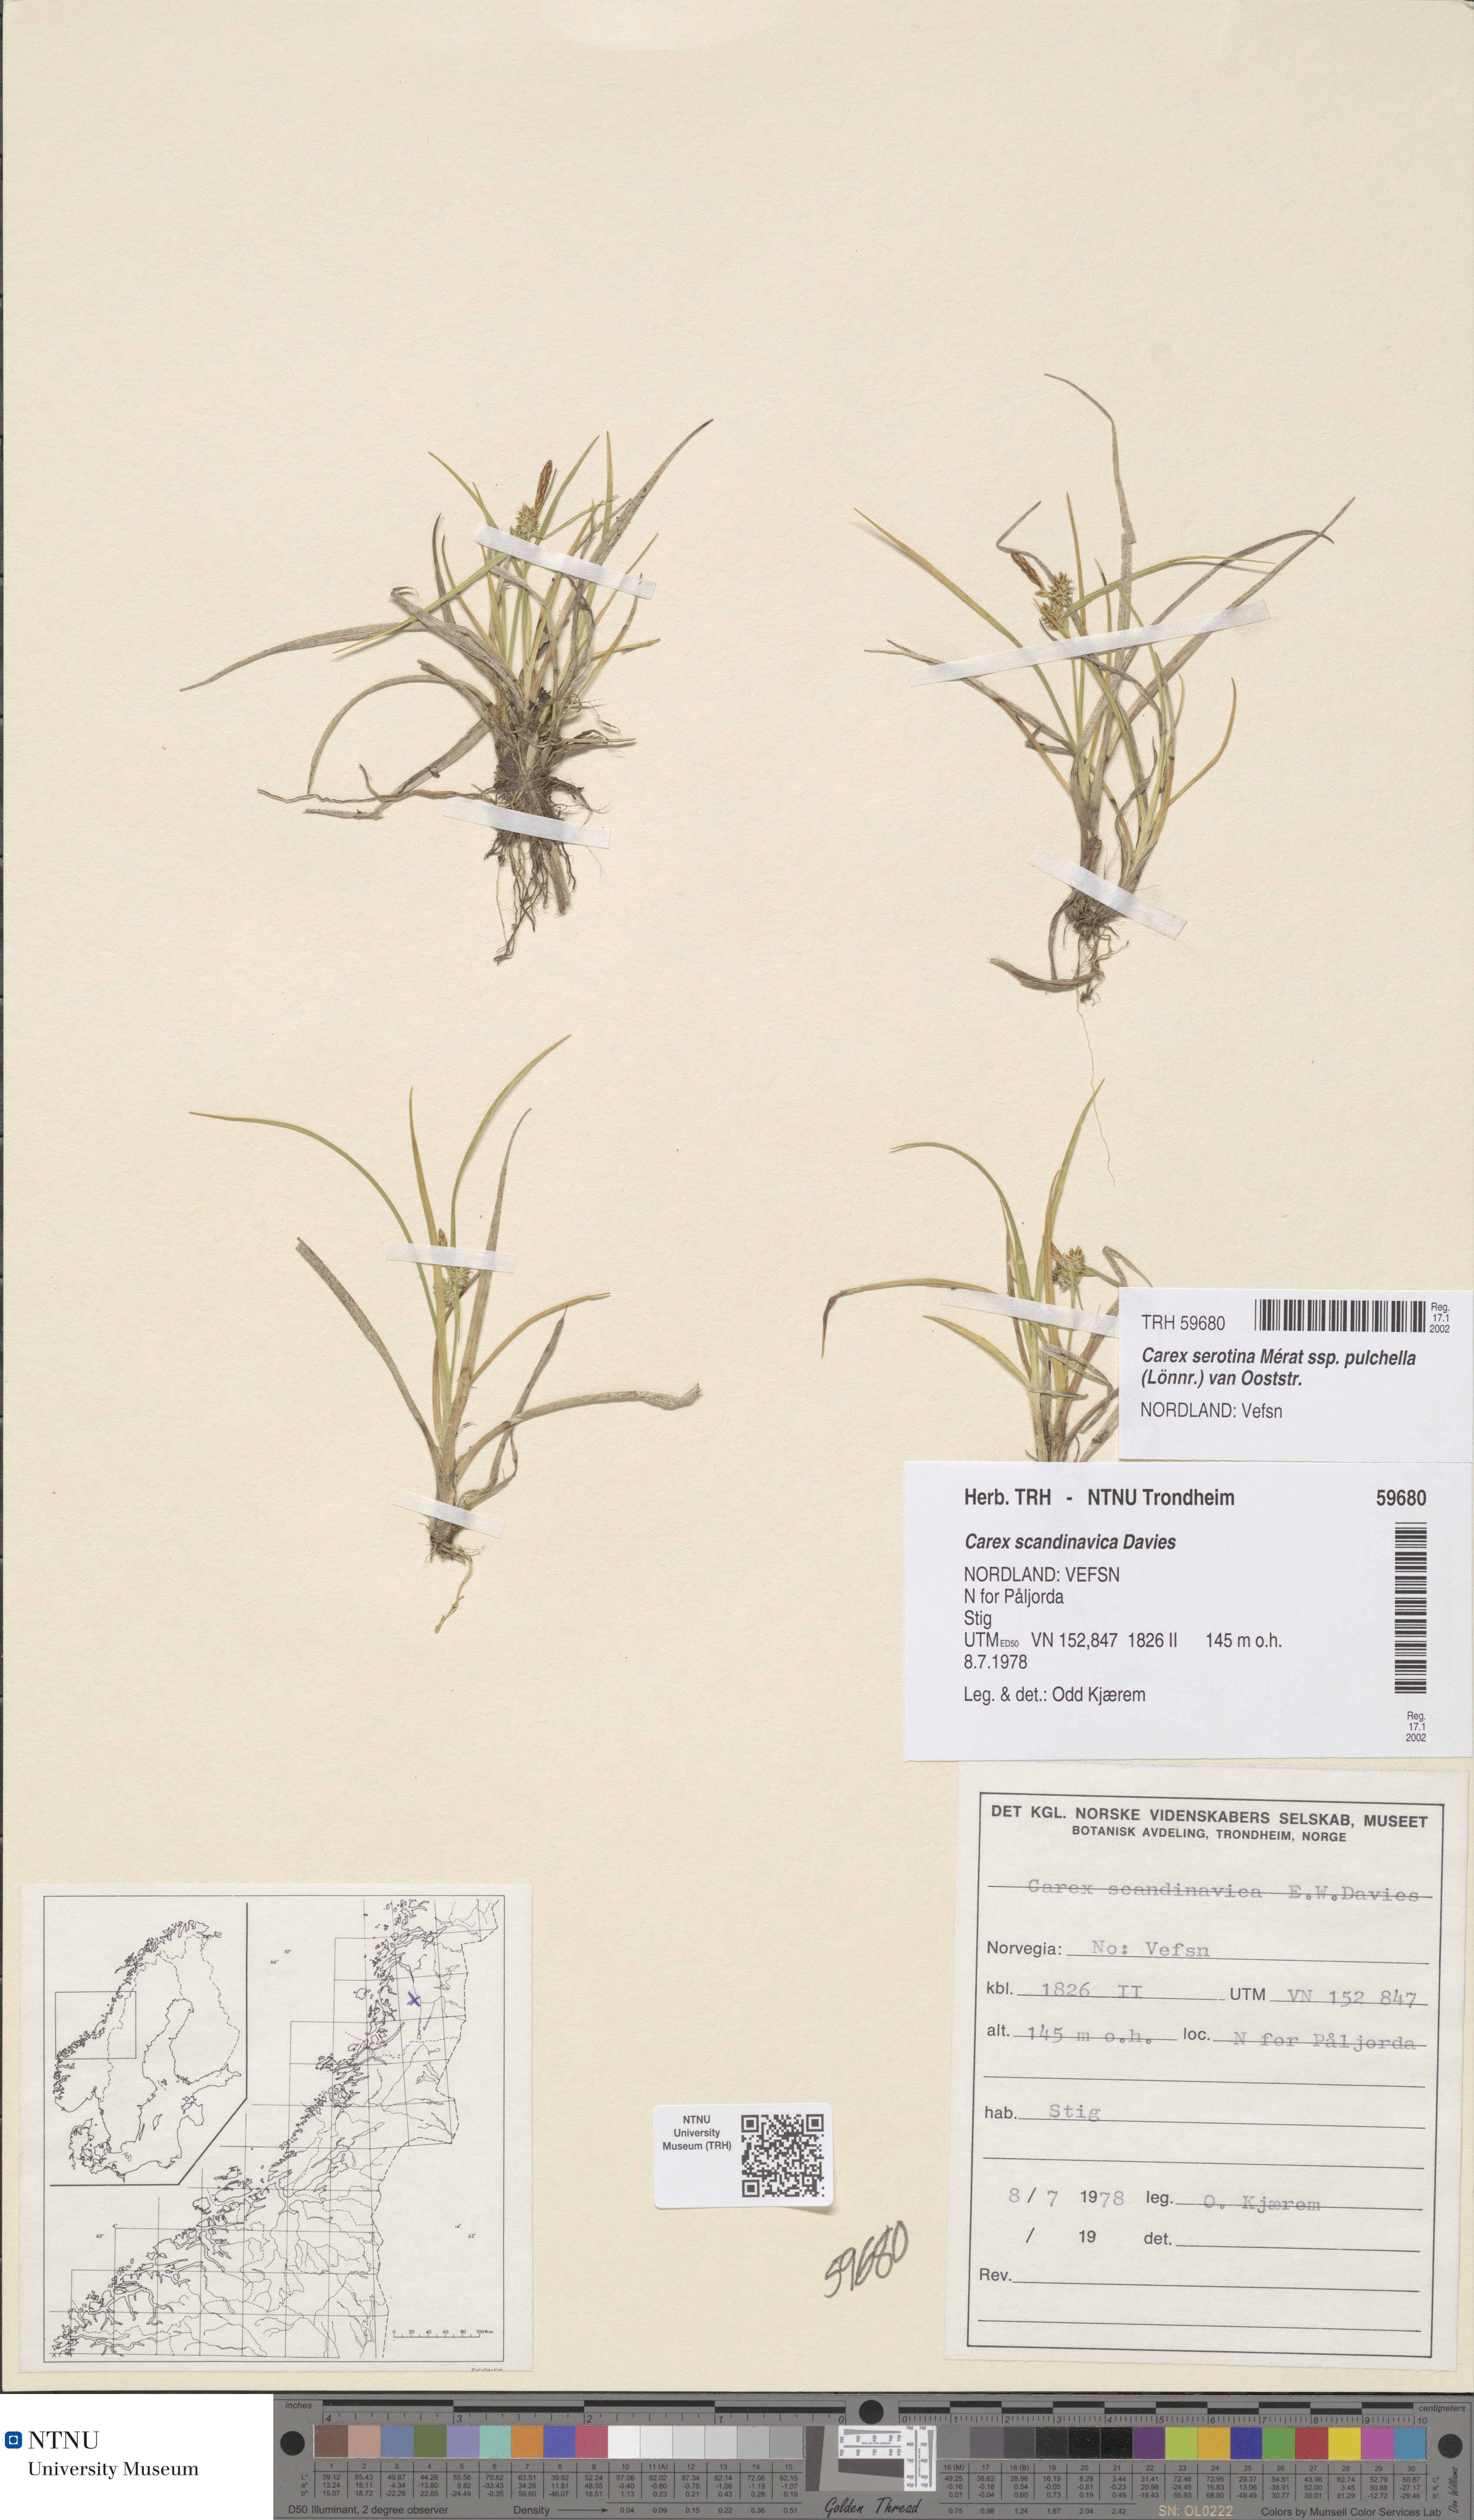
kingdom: Plantae
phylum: Tracheophyta
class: Liliopsida
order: Poales
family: Cyperaceae
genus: Carex
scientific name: Carex oederi
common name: Common & small-fruited yellow-sedge
